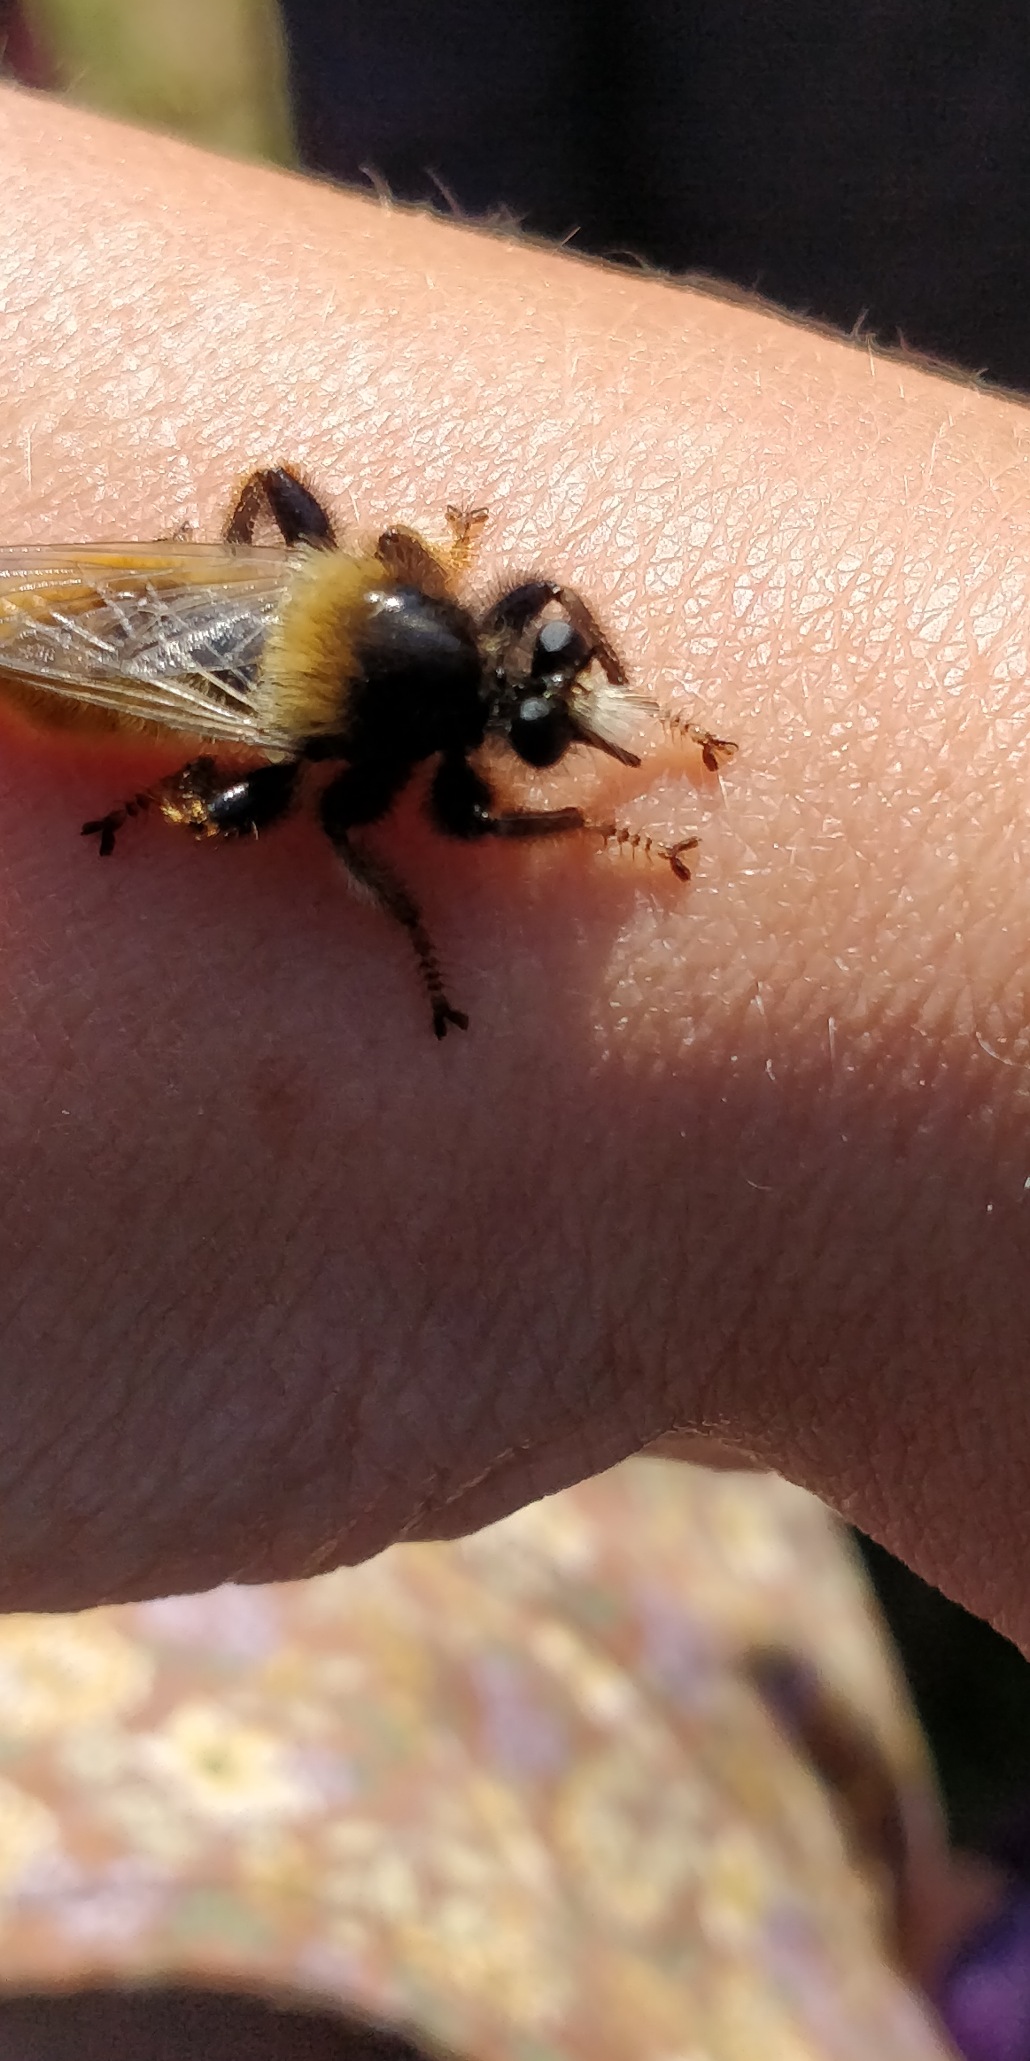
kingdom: Animalia
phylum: Arthropoda
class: Insecta
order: Diptera
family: Asilidae
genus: Laphria
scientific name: Laphria flava
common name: Gul vedrovflue
